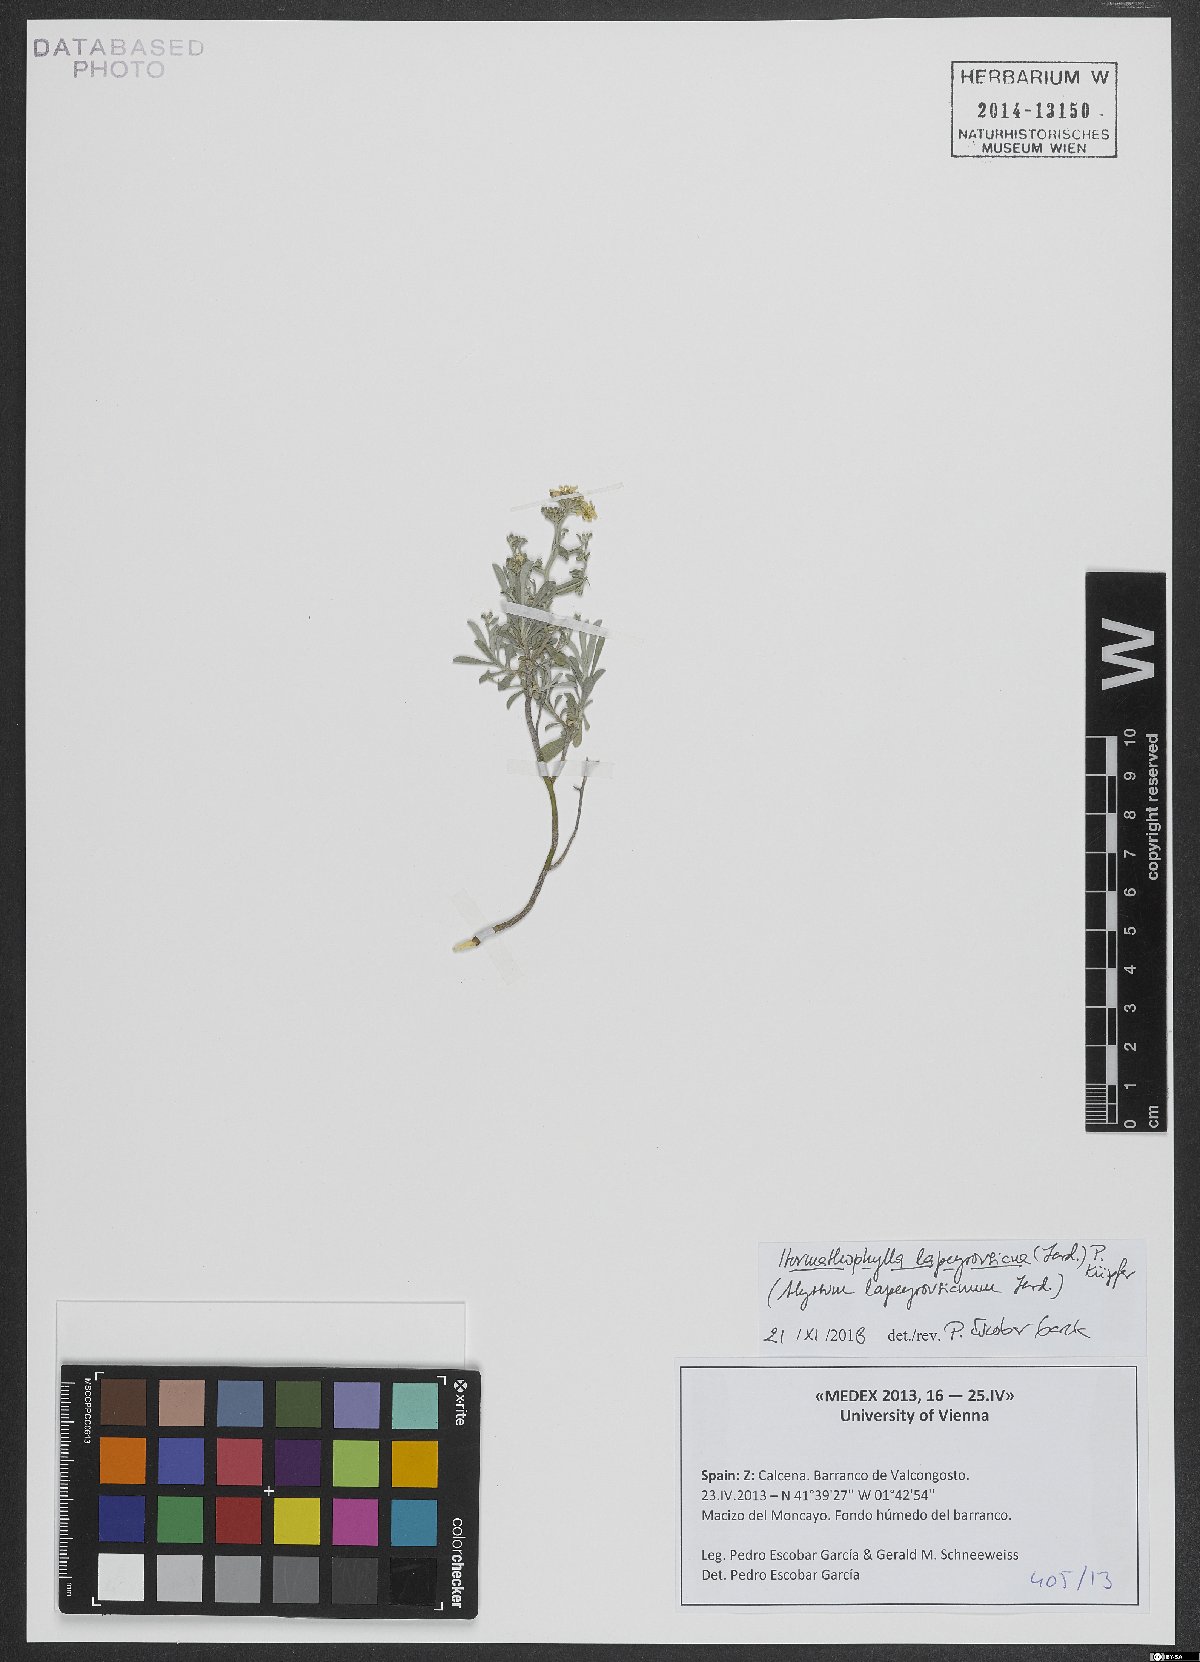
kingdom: Plantae
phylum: Tracheophyta
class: Magnoliopsida
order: Brassicales
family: Brassicaceae
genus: Hormathophylla
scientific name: Hormathophylla spinosa
